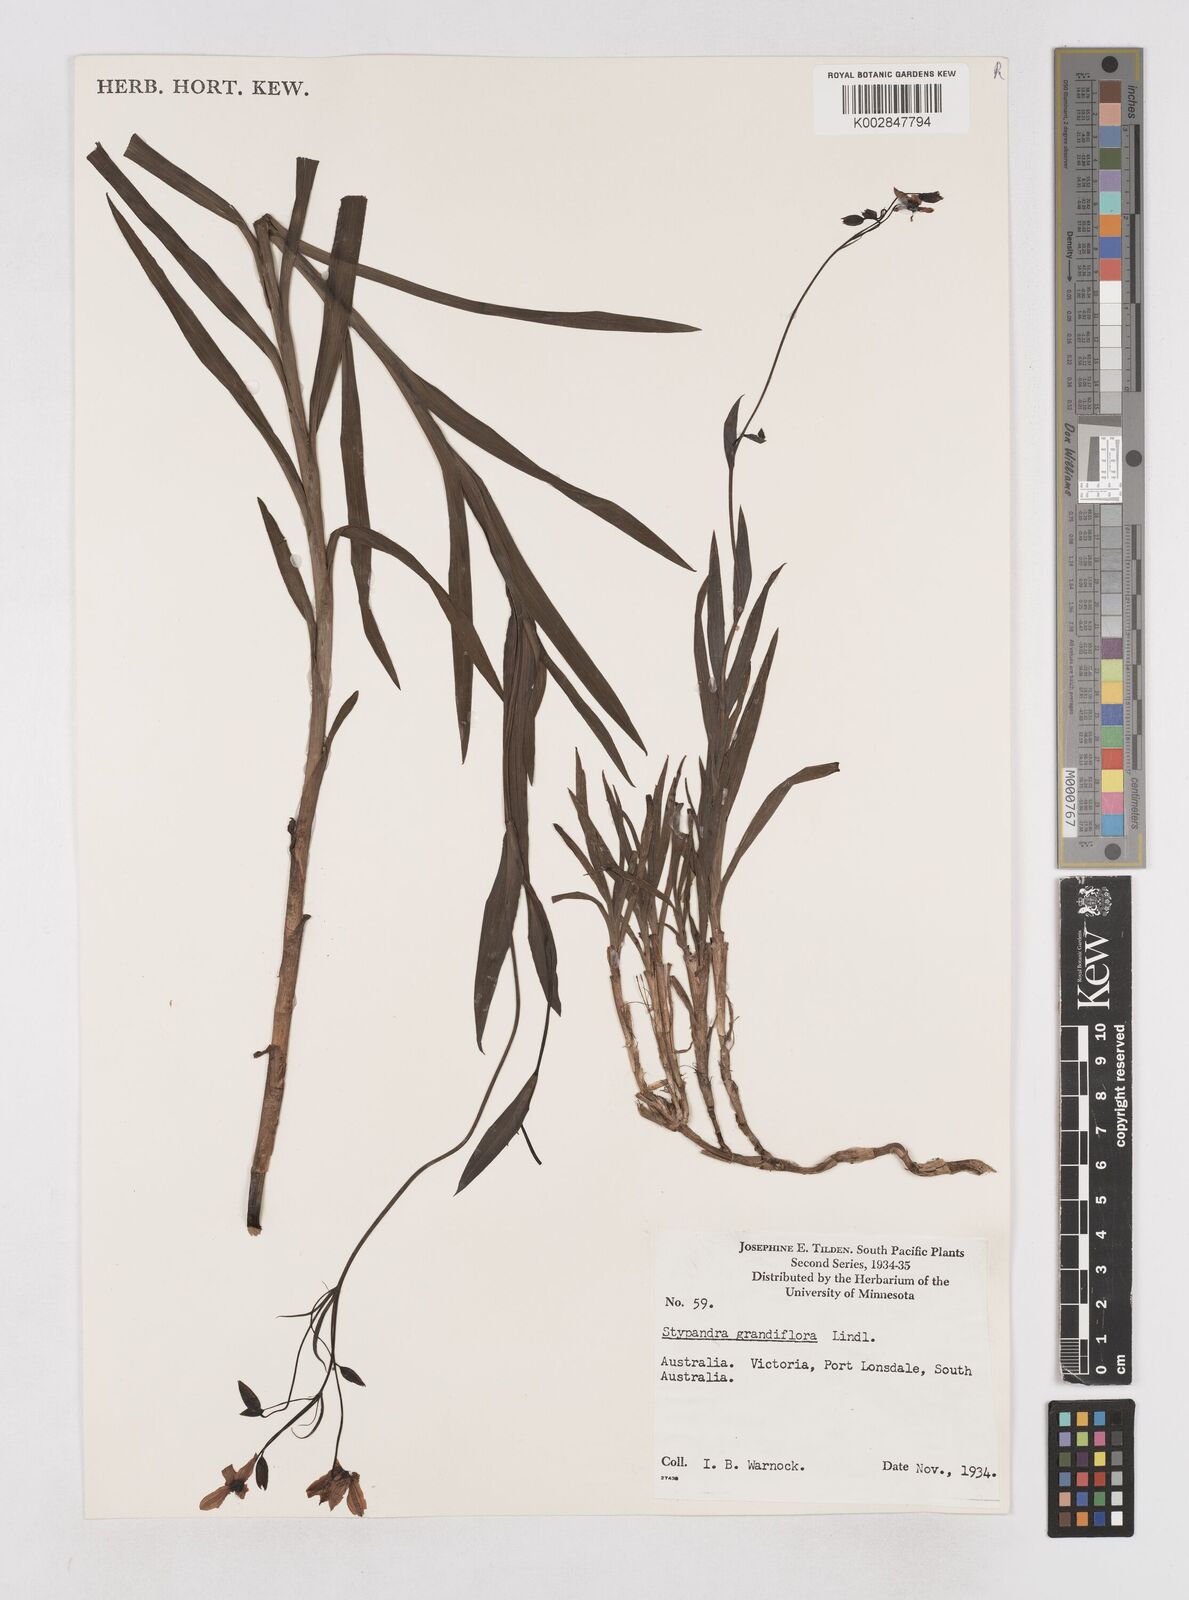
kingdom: Plantae
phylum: Tracheophyta
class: Liliopsida
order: Asparagales
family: Asphodelaceae
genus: Stypandra
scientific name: Stypandra glauca
